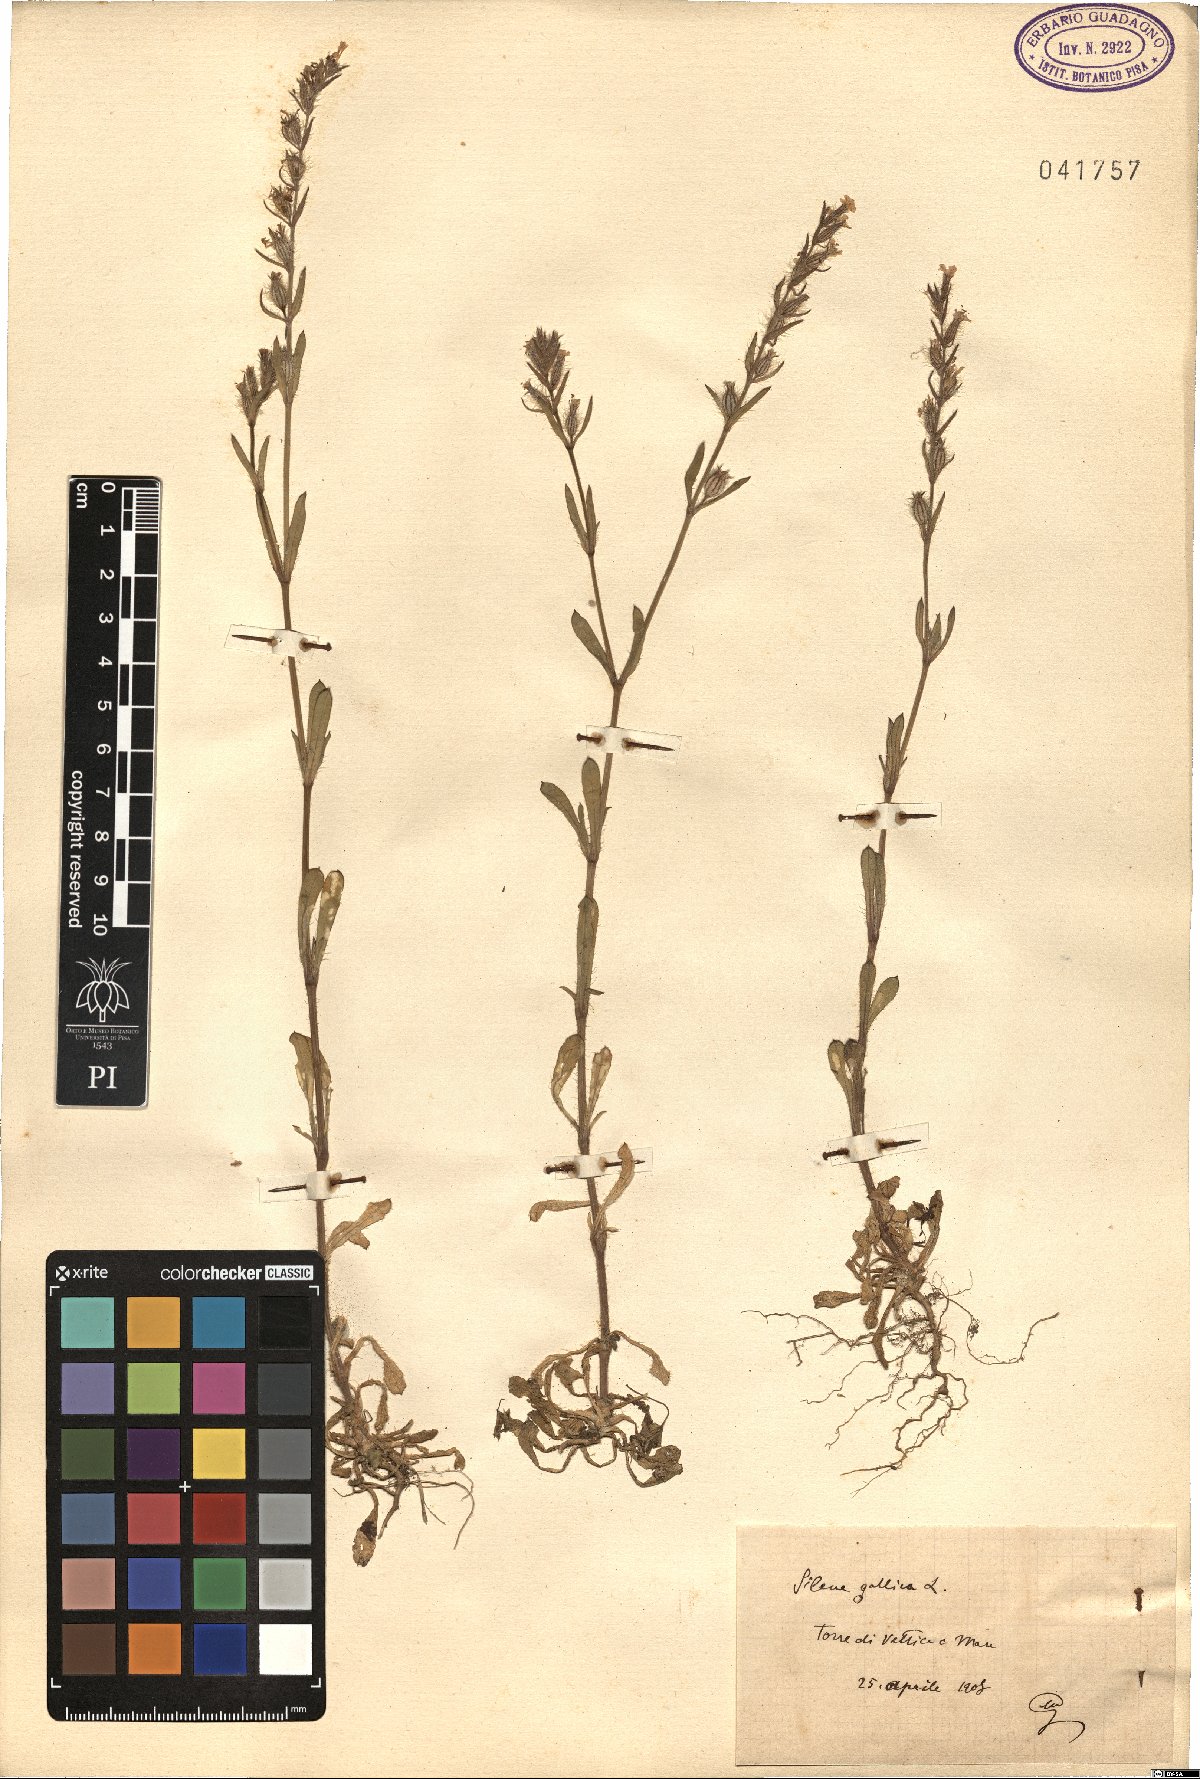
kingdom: Plantae
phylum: Tracheophyta
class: Magnoliopsida
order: Caryophyllales
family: Caryophyllaceae
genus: Silene
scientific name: Silene gallica
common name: Small-flowered catchfly
